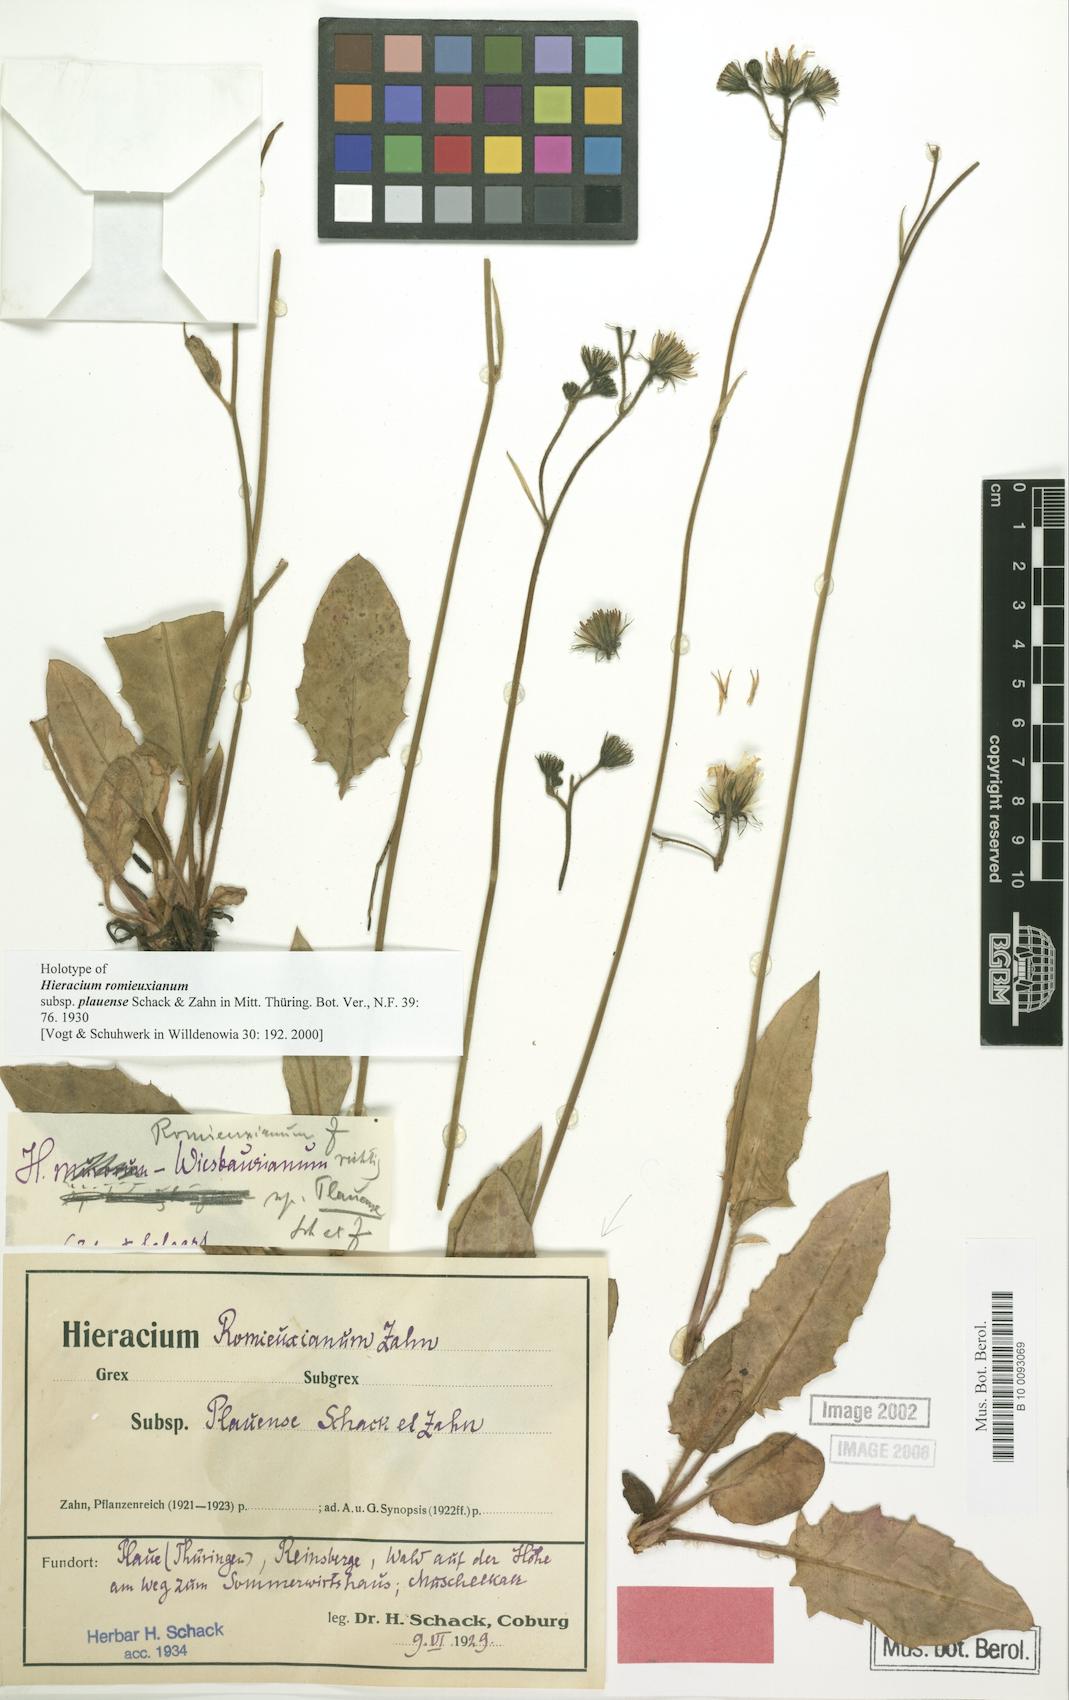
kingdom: Plantae
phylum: Tracheophyta
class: Magnoliopsida
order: Asterales
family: Asteraceae
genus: Hieracium
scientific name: Hieracium hypochoeroides
